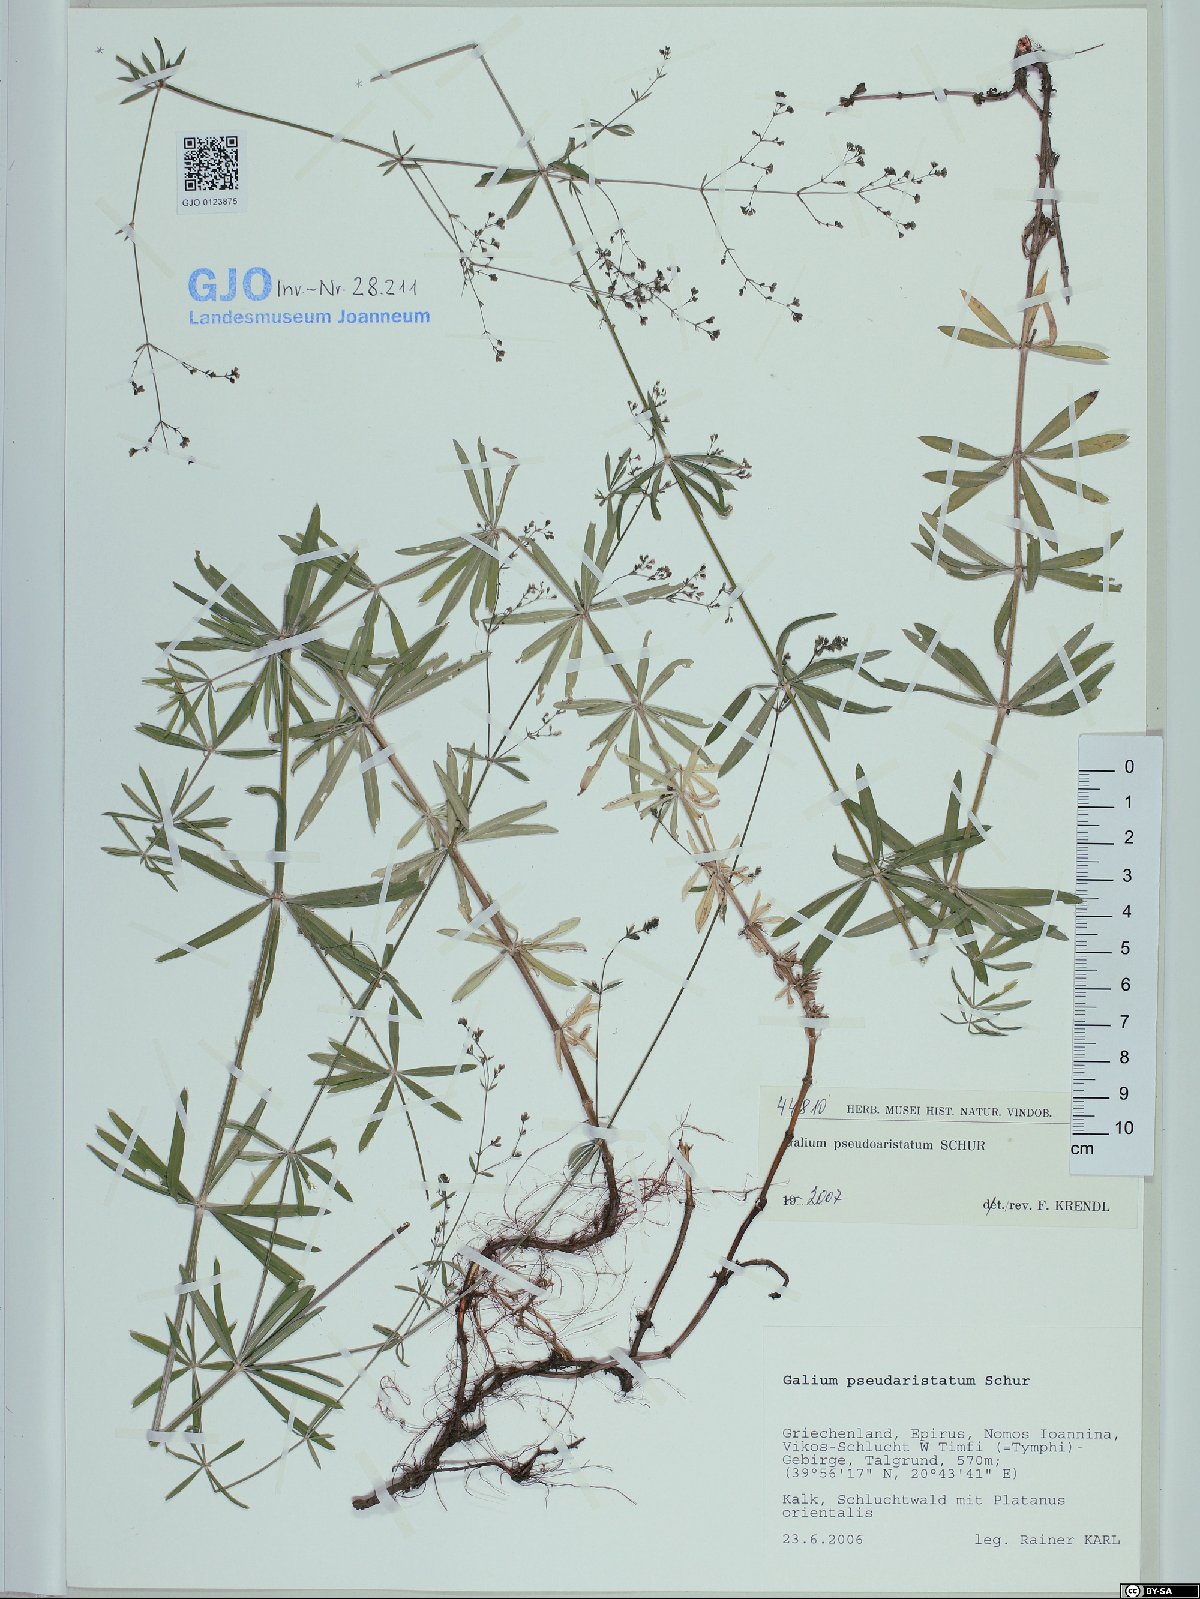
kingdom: Plantae
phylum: Tracheophyta
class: Magnoliopsida
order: Gentianales
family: Rubiaceae
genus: Galium
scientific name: Galium pseudoaristatum
